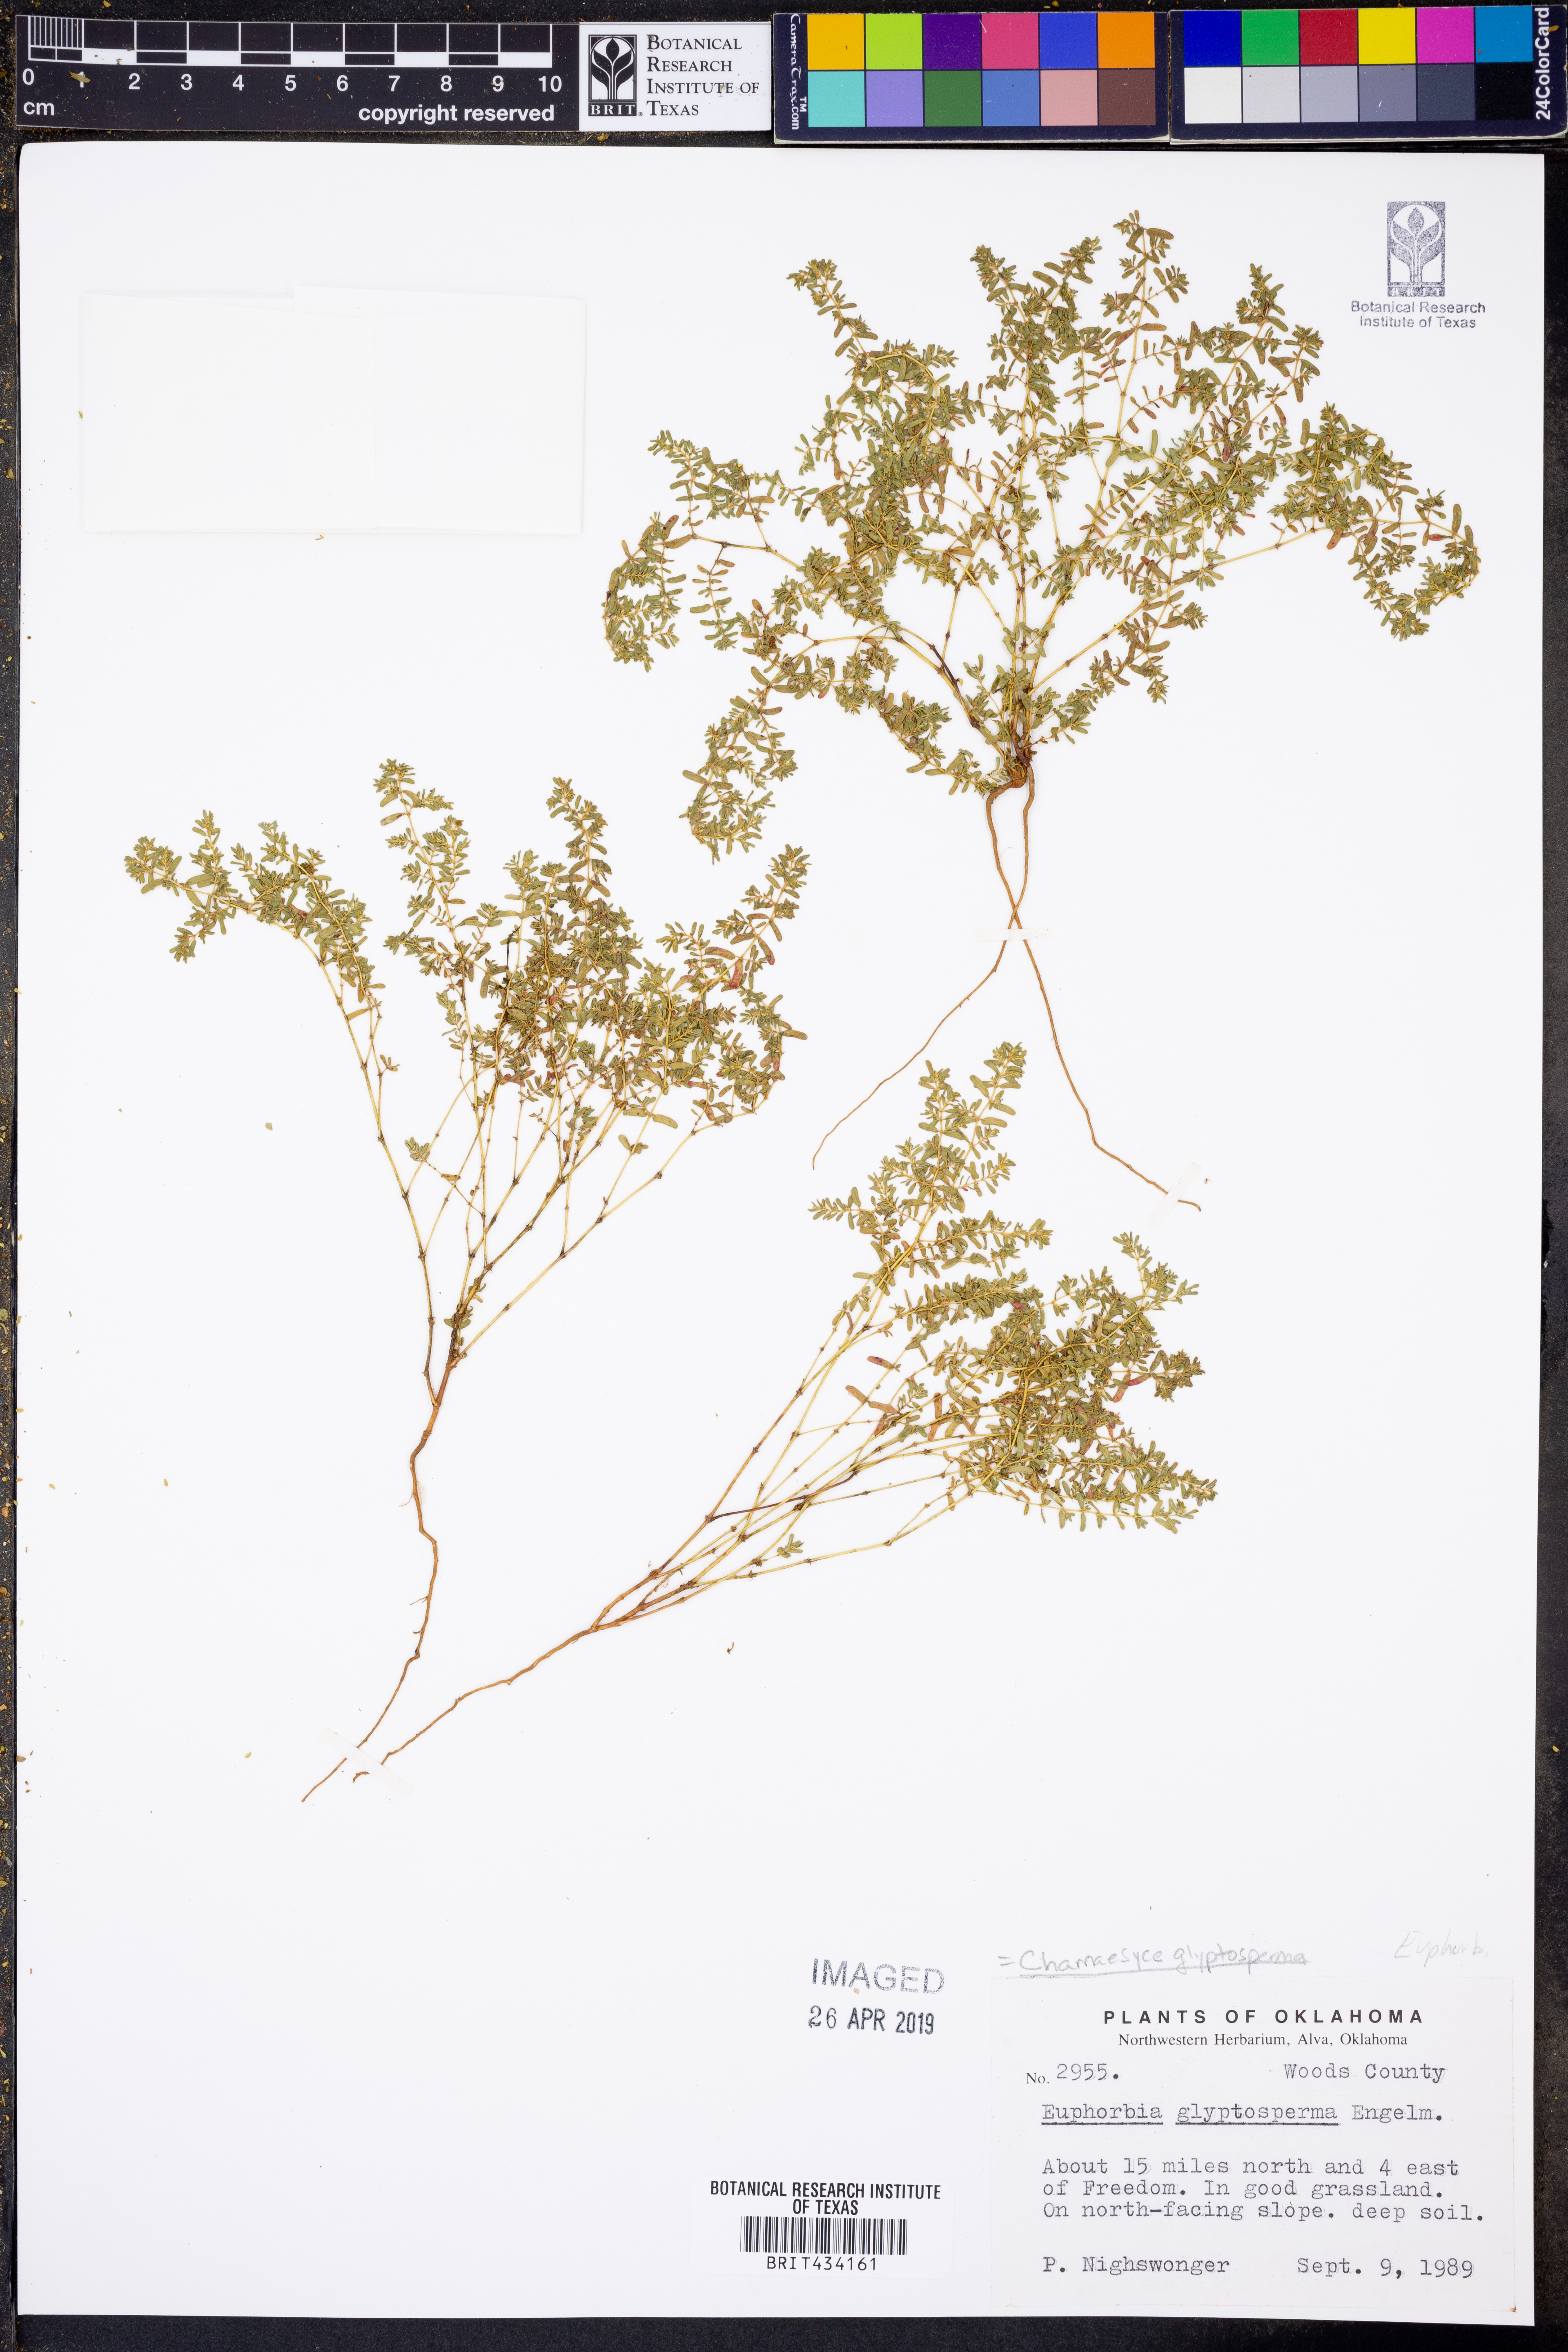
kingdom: Plantae
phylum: Tracheophyta
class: Magnoliopsida
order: Malpighiales
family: Euphorbiaceae
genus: Euphorbia
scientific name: Euphorbia glyptosperma
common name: Corrugate-seeded spurge
